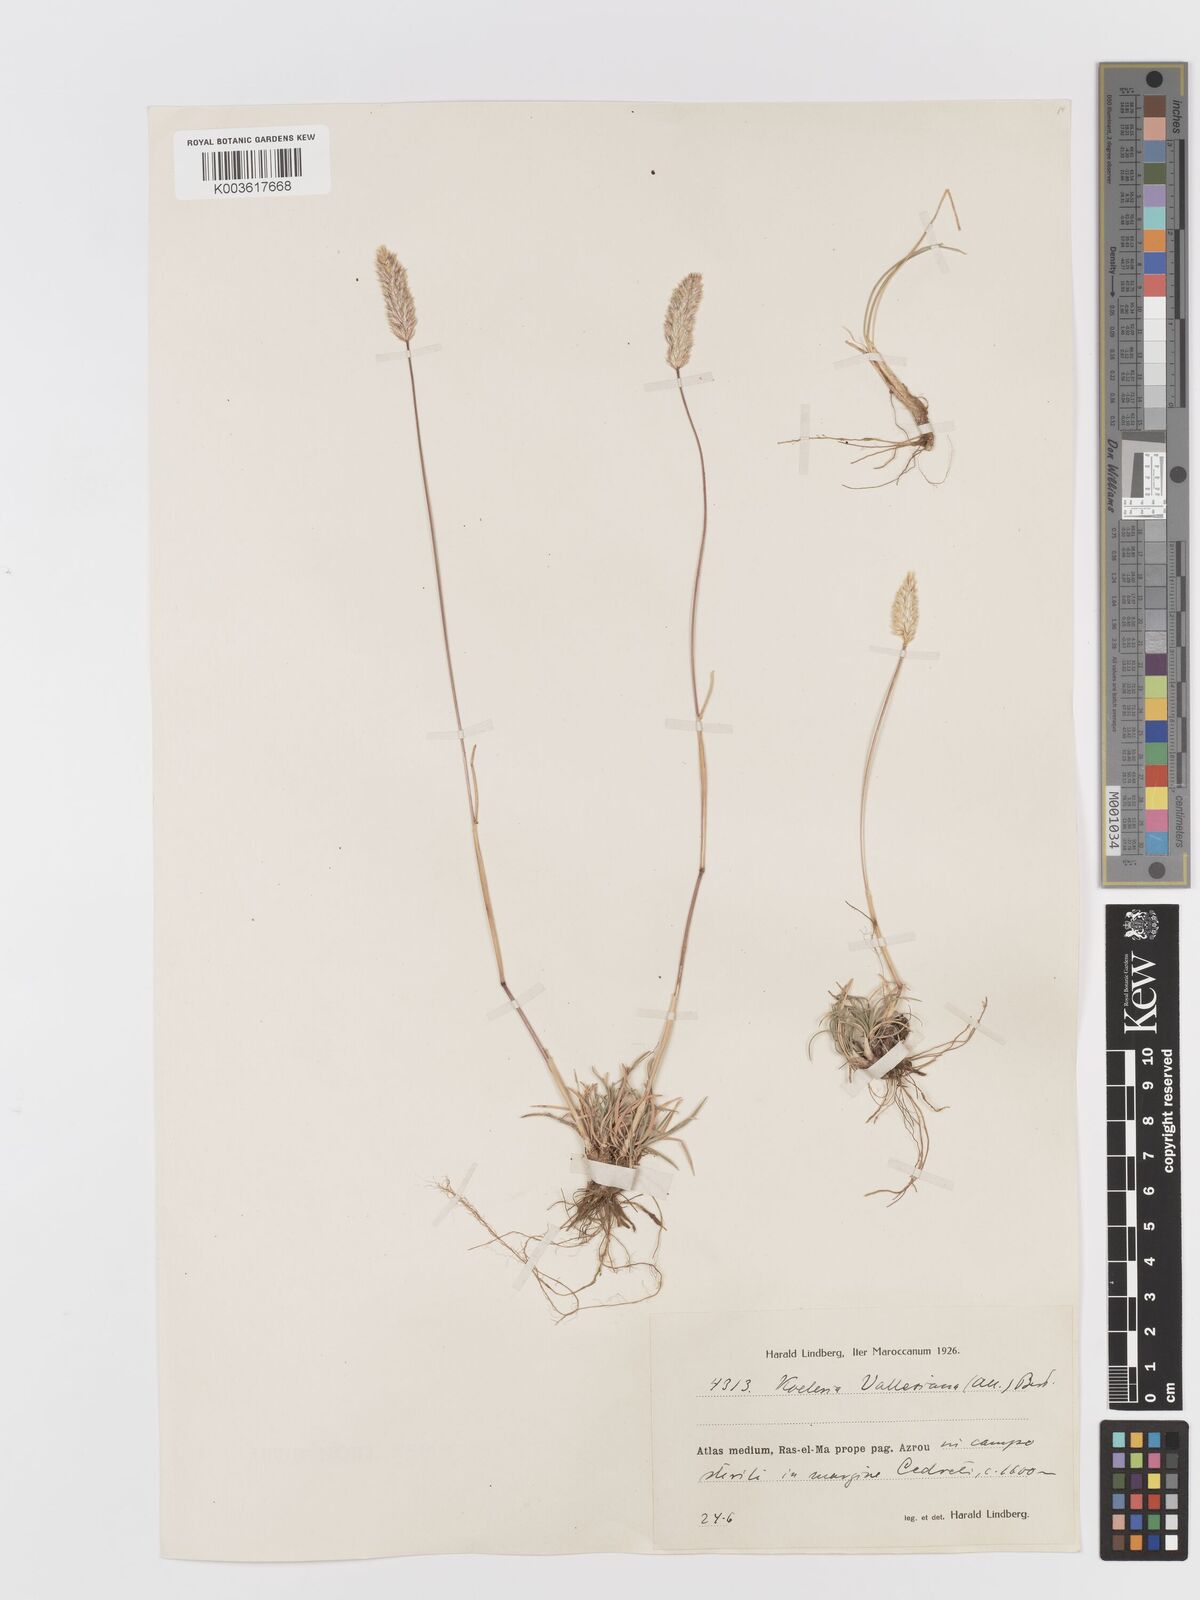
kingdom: Plantae
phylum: Tracheophyta
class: Liliopsida
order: Poales
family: Poaceae
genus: Koeleria
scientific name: Koeleria vallesiana
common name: Somerset hair-grass
